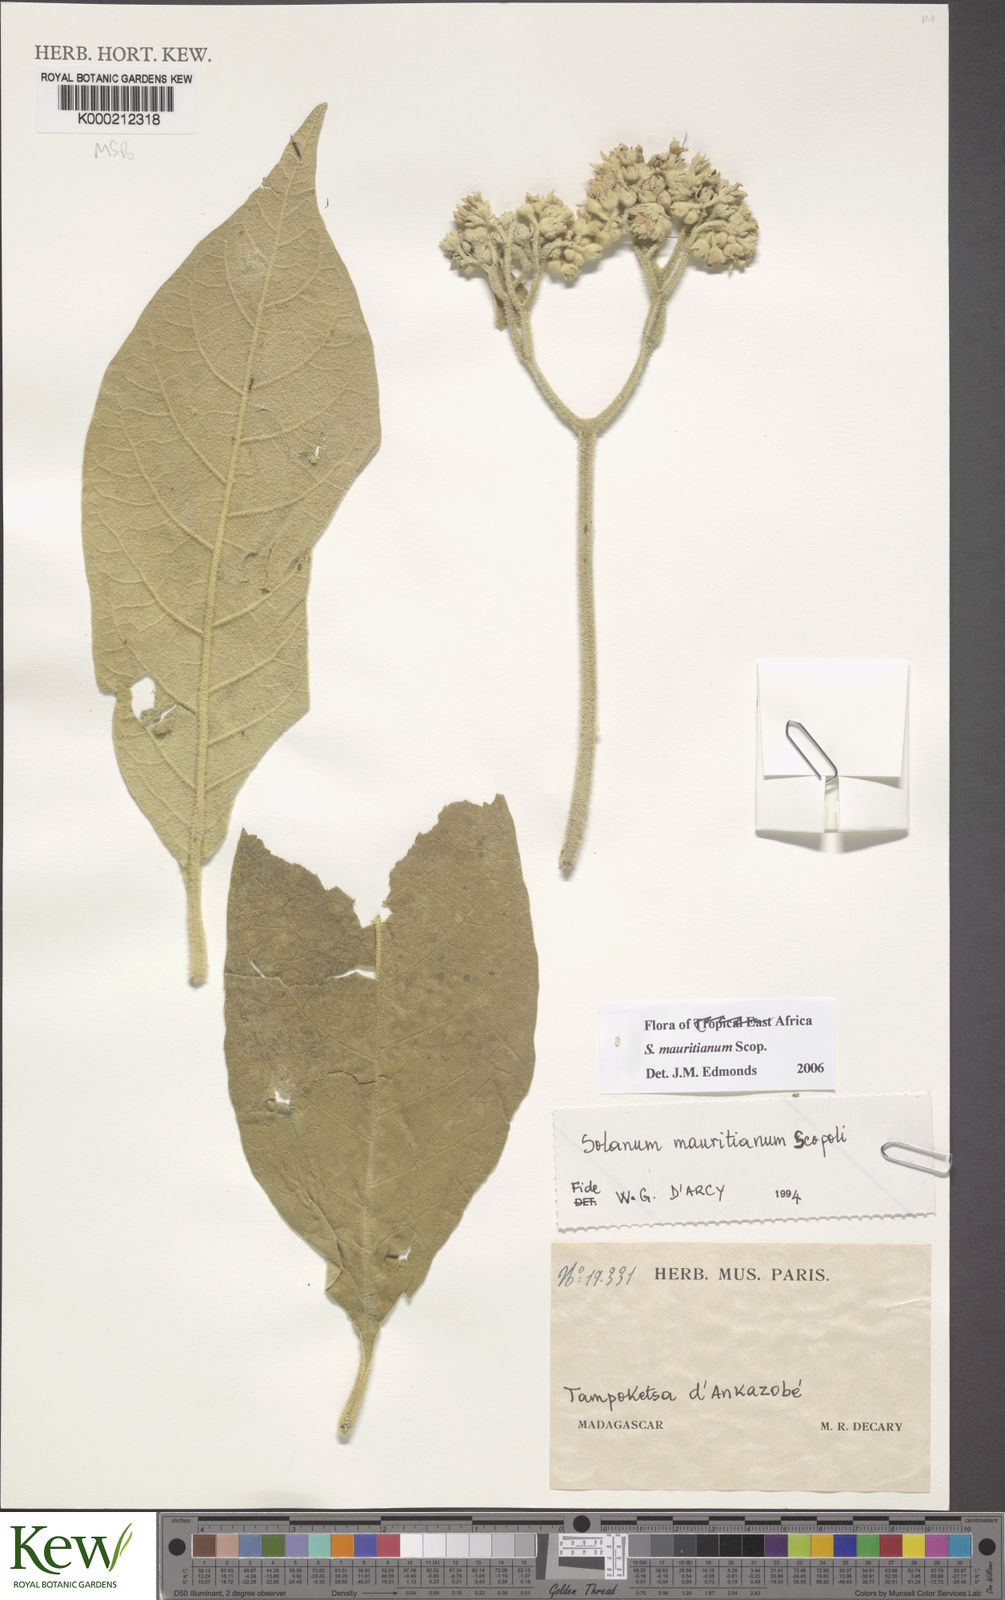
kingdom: Plantae
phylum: Tracheophyta
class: Magnoliopsida
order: Solanales
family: Solanaceae
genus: Solanum
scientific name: Solanum mauritianum
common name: Earleaf nightshade
